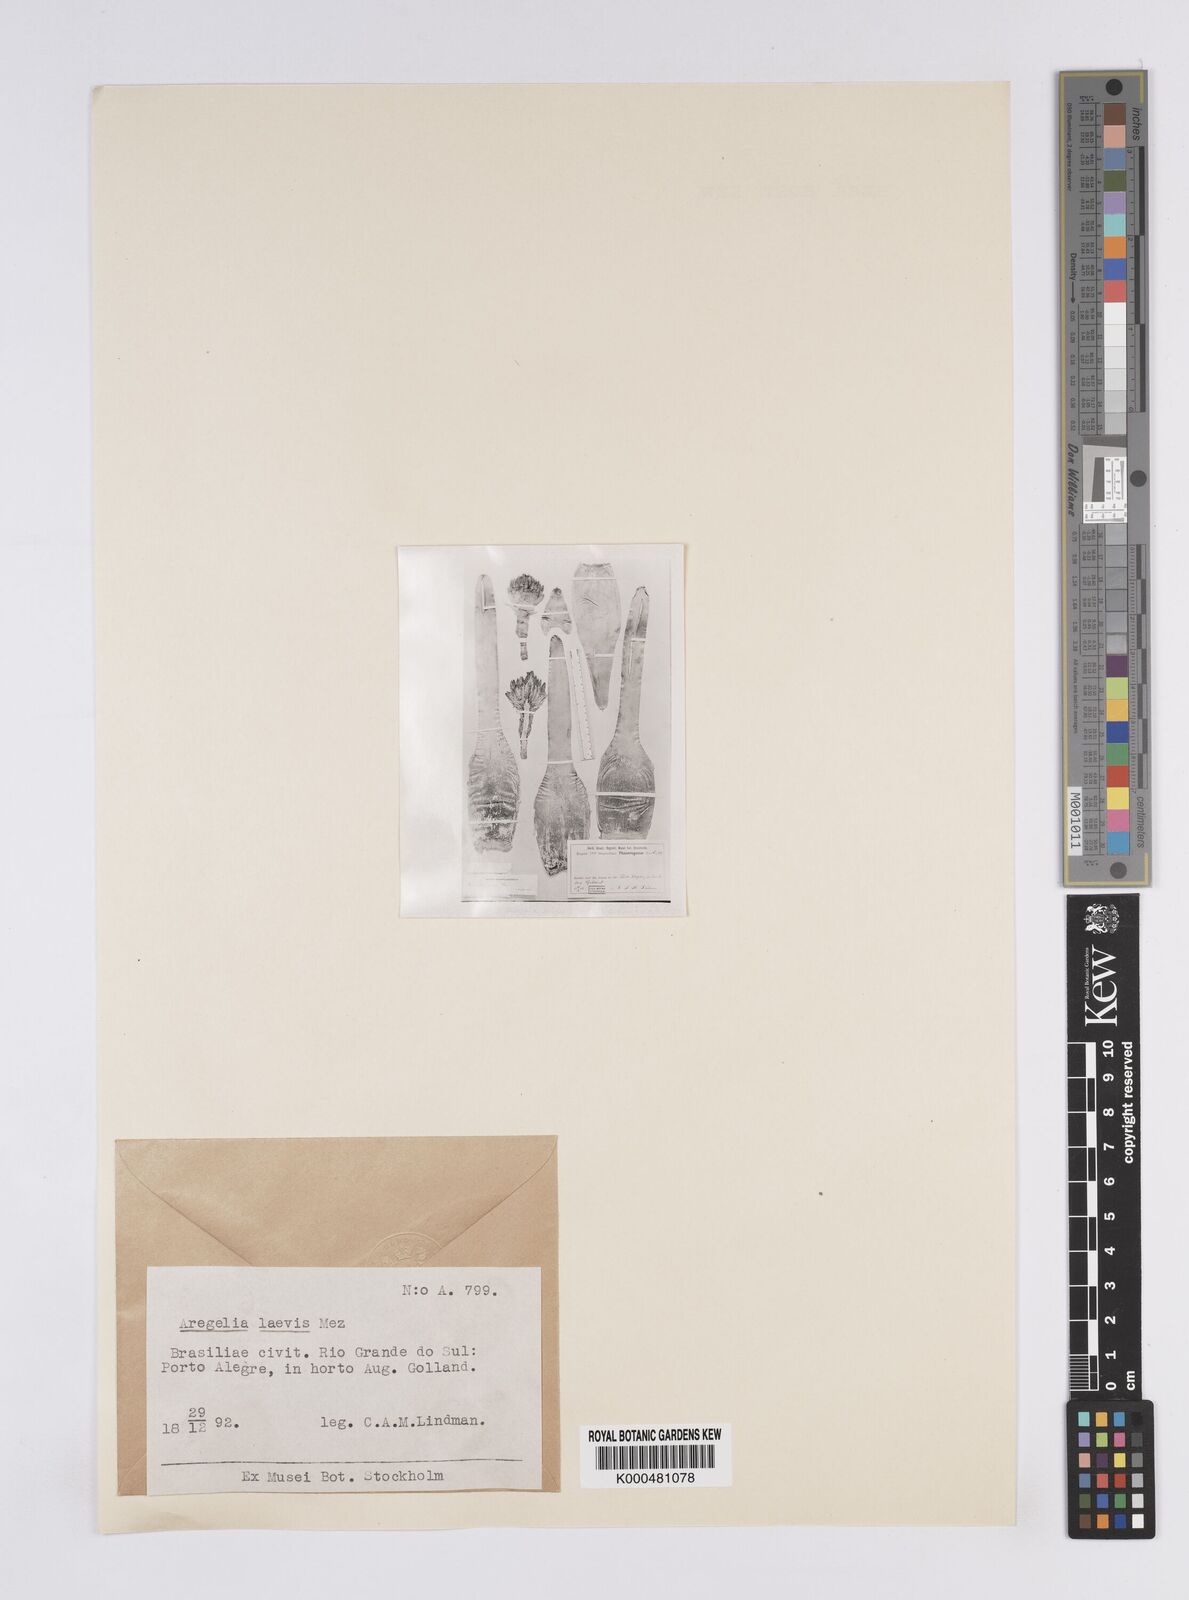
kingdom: Plantae
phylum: Tracheophyta
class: Liliopsida
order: Poales
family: Bromeliaceae
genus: Neoregelia
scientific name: Neoregelia laevis
